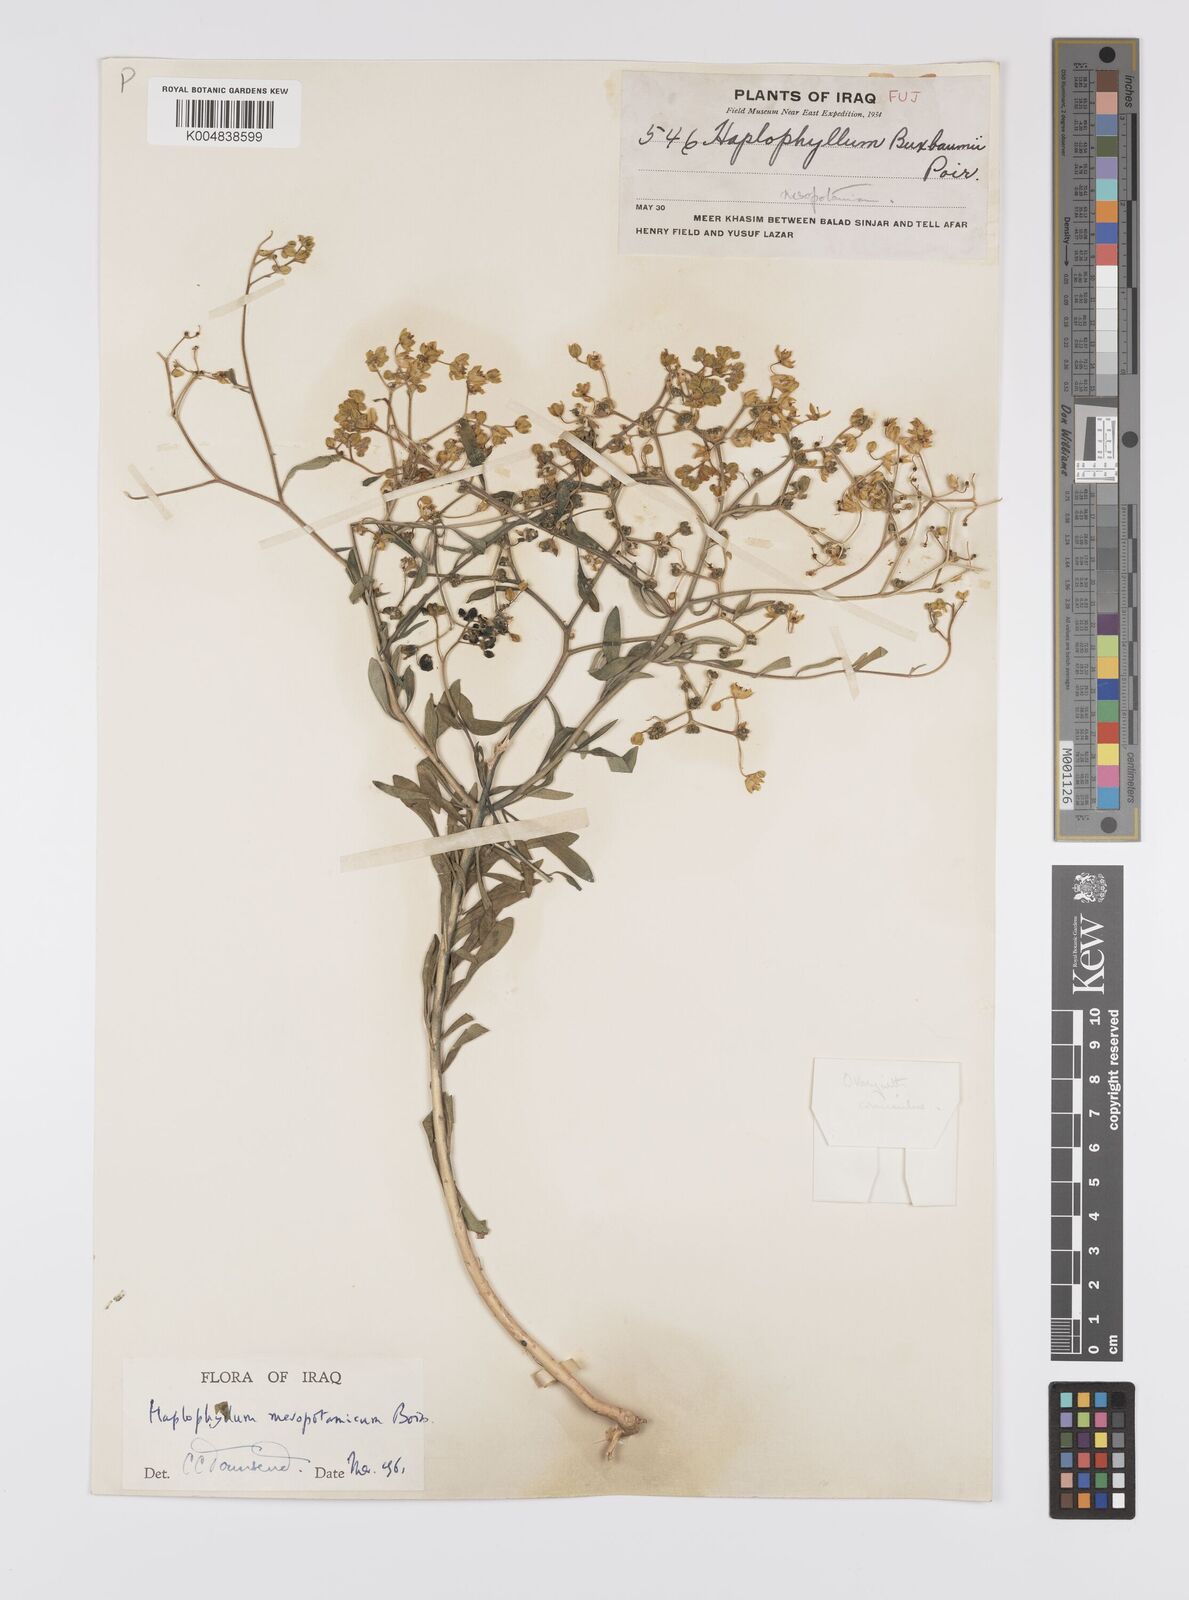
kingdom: Plantae
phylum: Tracheophyta
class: Magnoliopsida
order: Sapindales
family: Rutaceae
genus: Haplophyllum
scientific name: Haplophyllum buxbaumii
